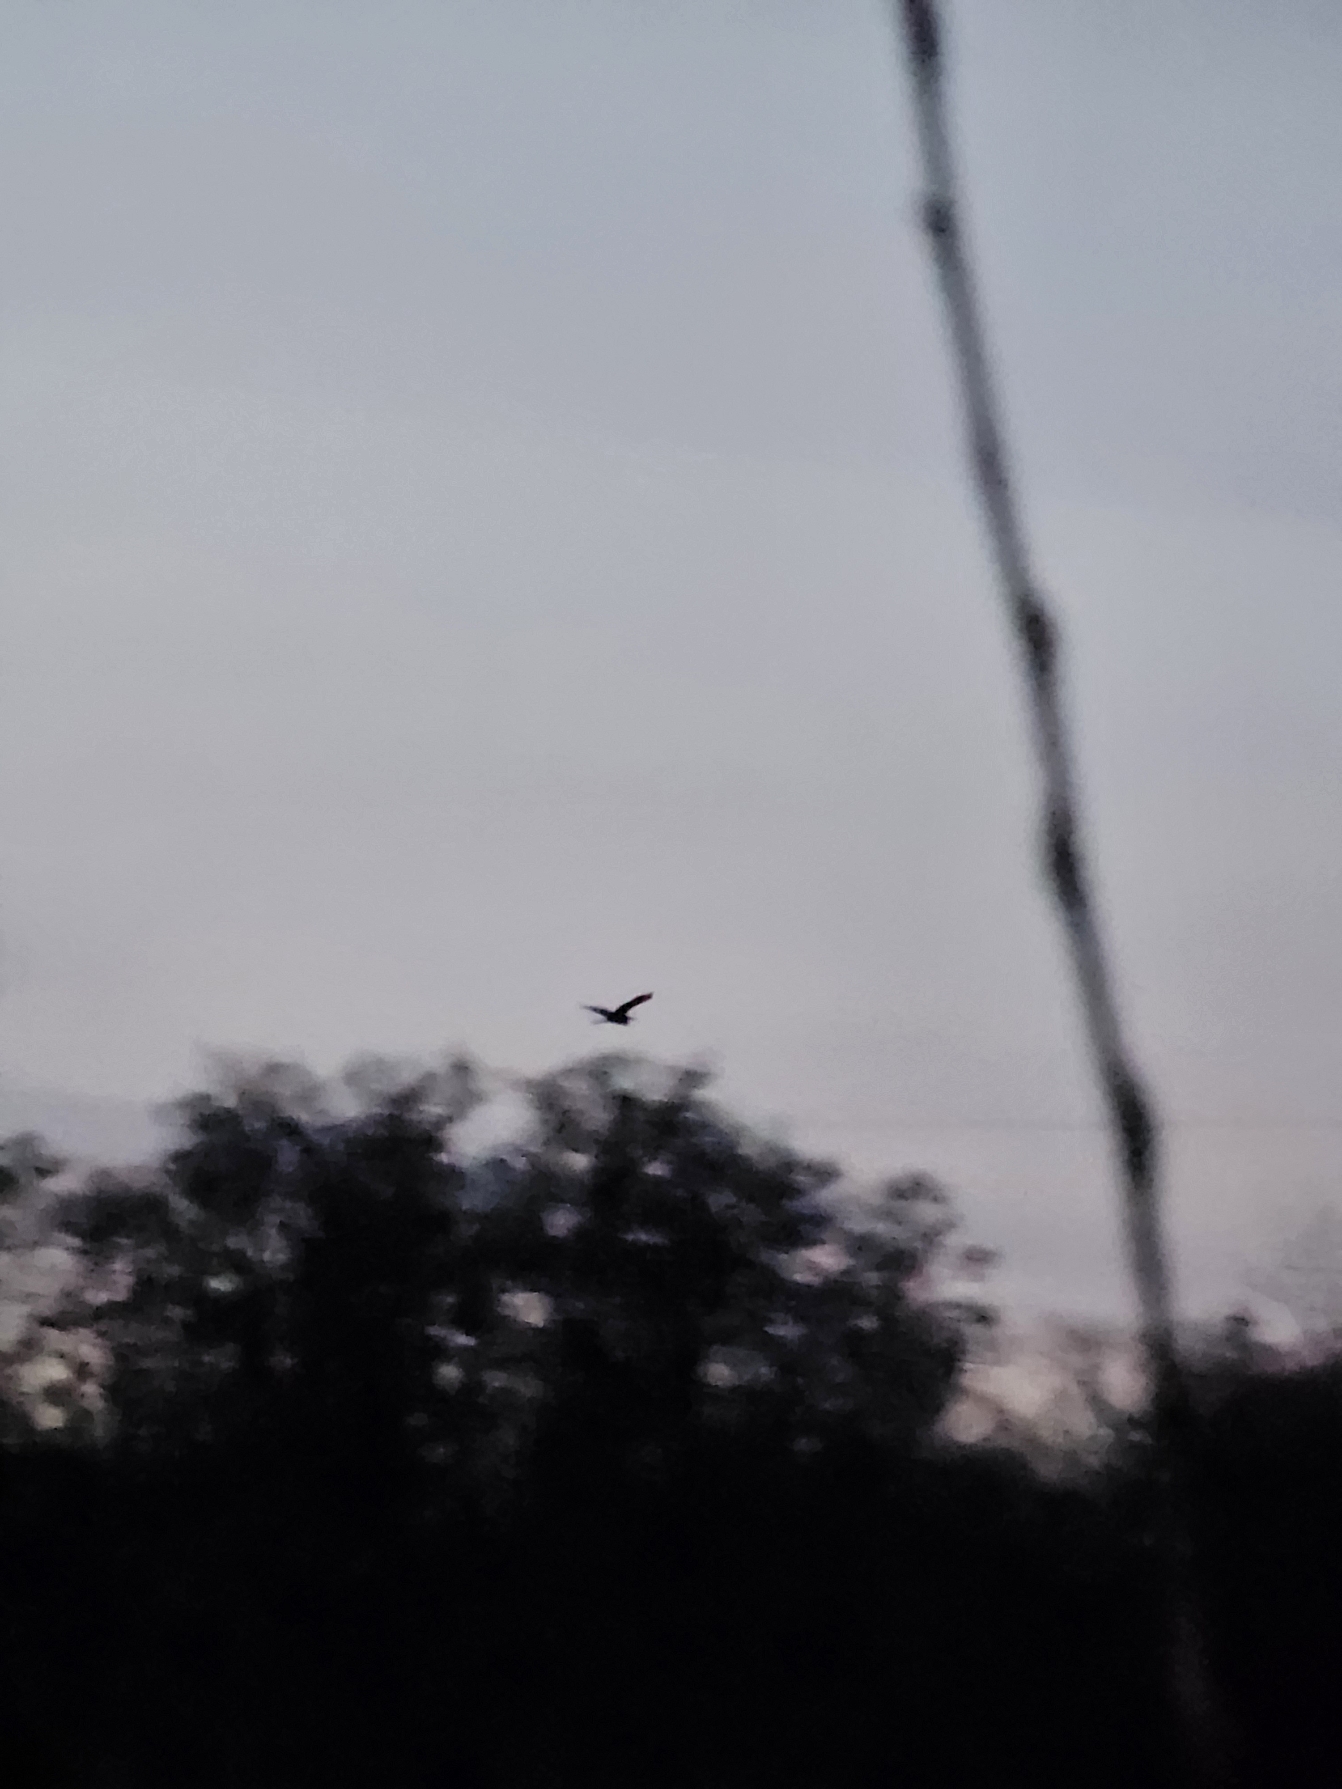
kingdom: Animalia
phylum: Chordata
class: Aves
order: Pelecaniformes
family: Ardeidae
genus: Ardea
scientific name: Ardea cinerea
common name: Fiskehejre
